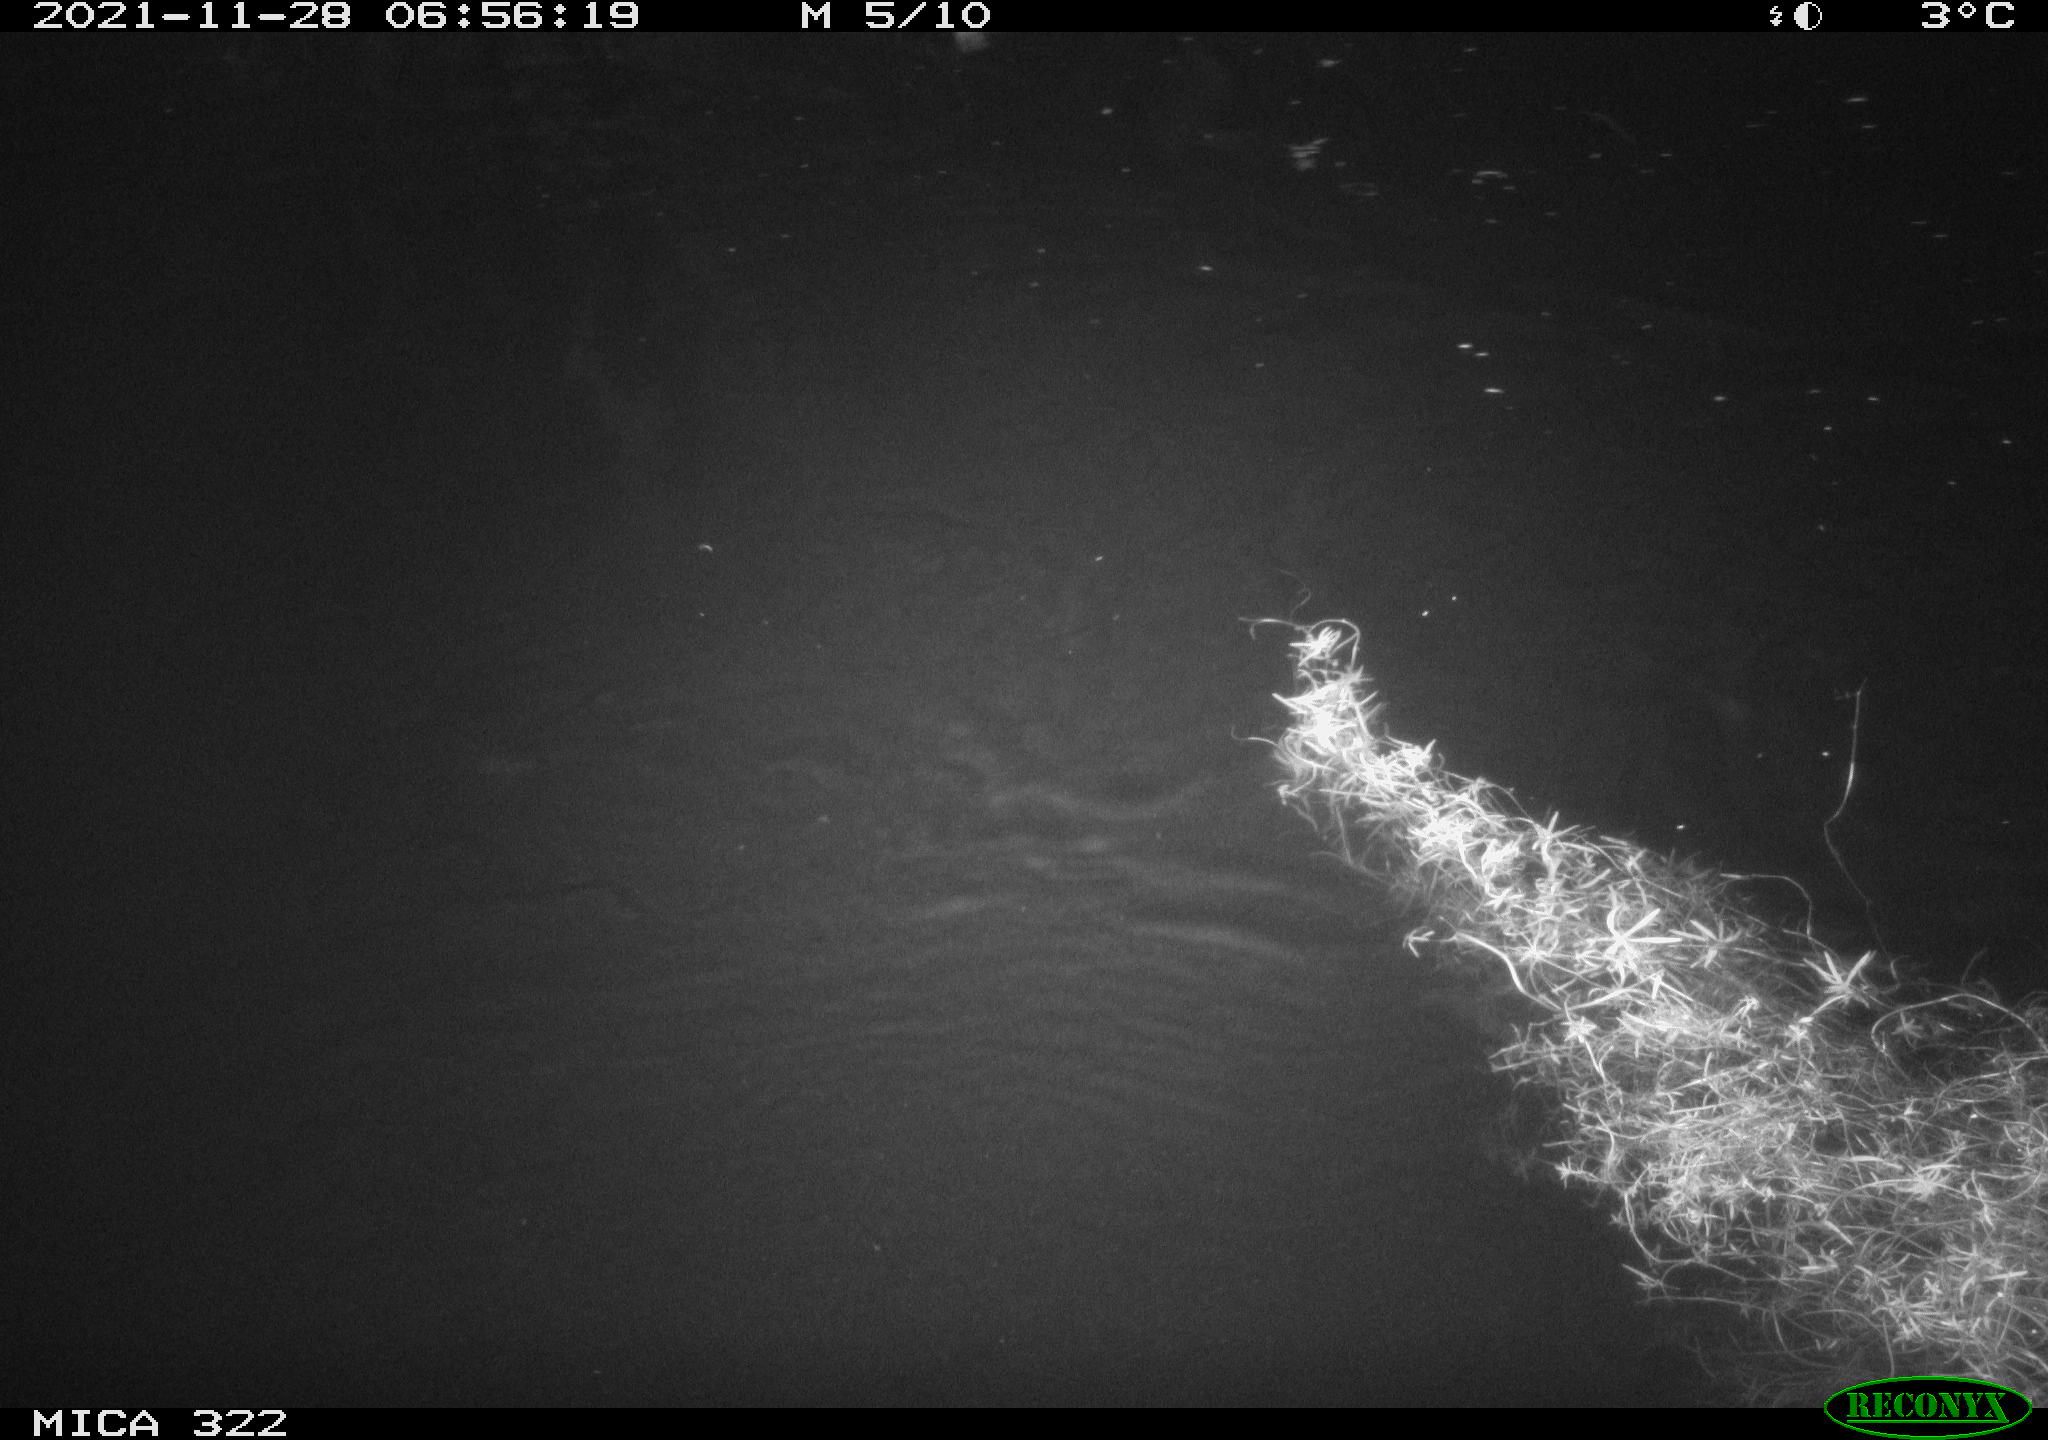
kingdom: Animalia
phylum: Chordata
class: Mammalia
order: Rodentia
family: Muridae
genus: Rattus
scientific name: Rattus norvegicus
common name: Brown rat
